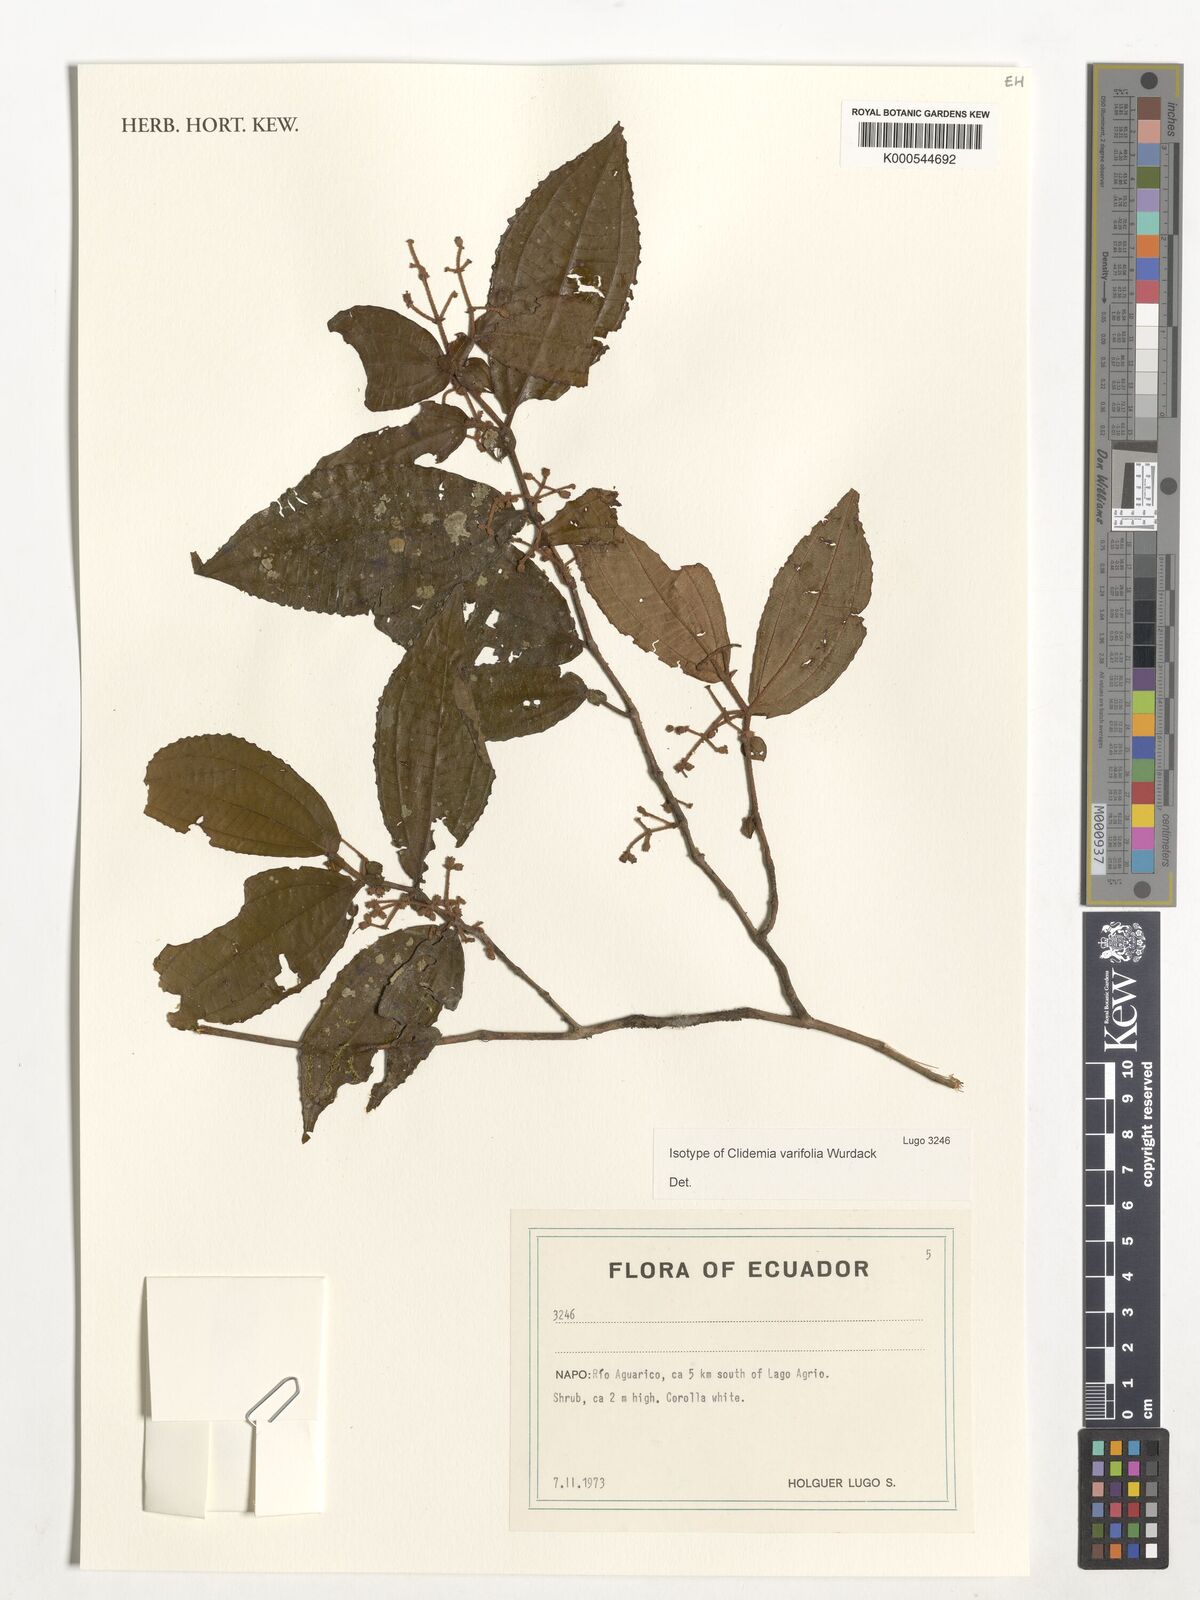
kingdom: Plantae
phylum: Tracheophyta
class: Magnoliopsida
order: Myrtales
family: Melastomataceae
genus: Miconia
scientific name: Miconia variifolia
